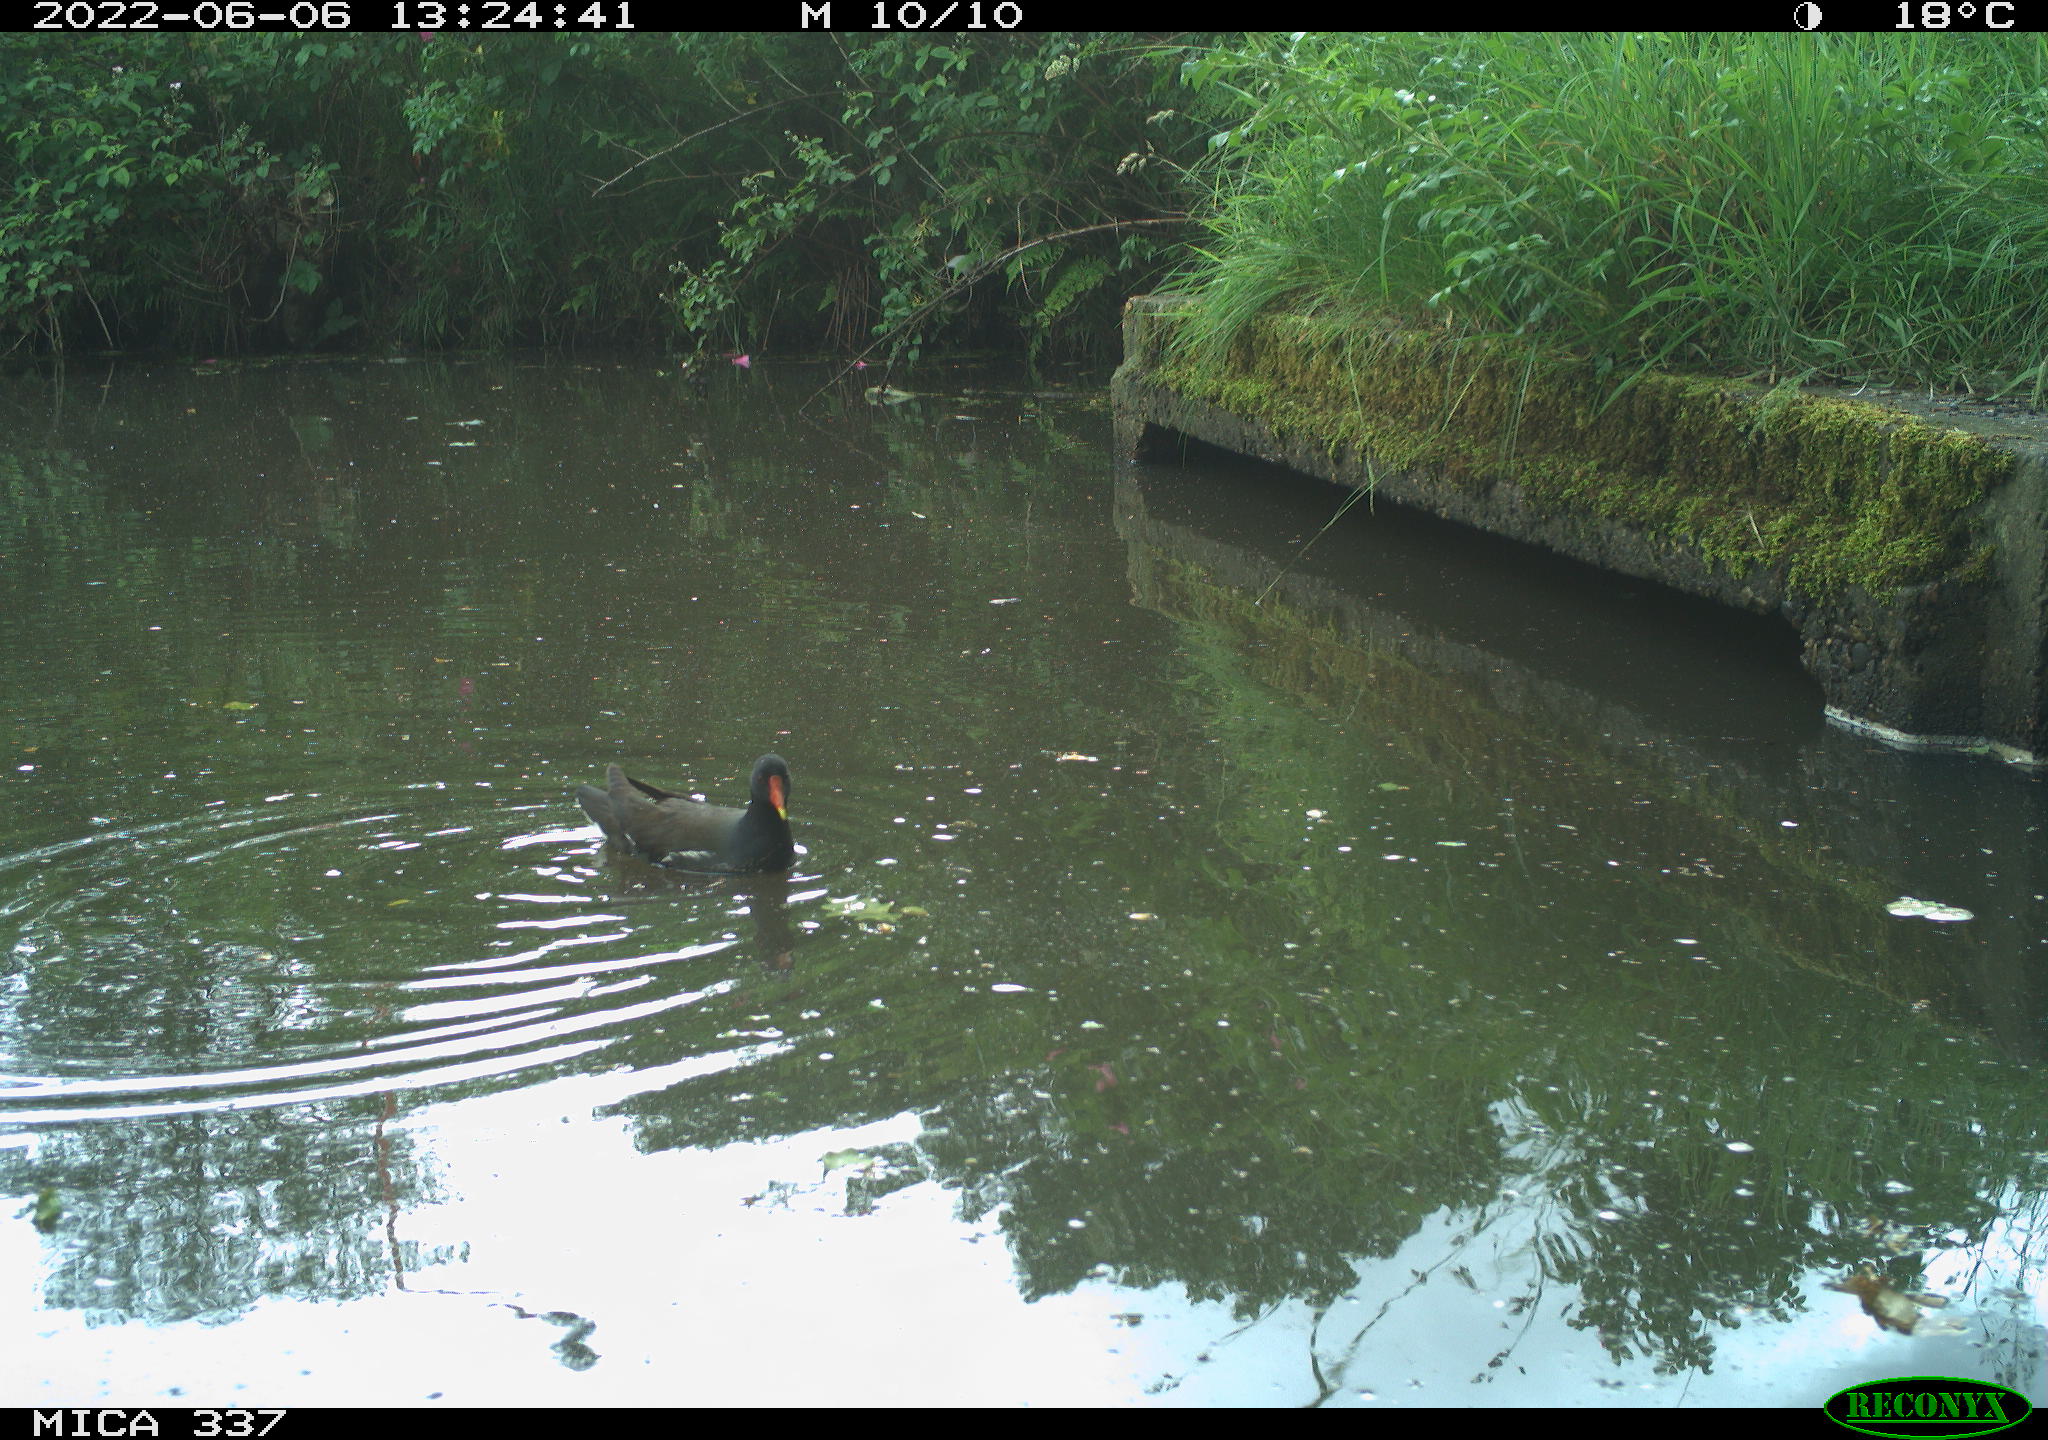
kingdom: Animalia
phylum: Chordata
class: Aves
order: Gruiformes
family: Rallidae
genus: Gallinula
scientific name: Gallinula chloropus
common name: Common moorhen
